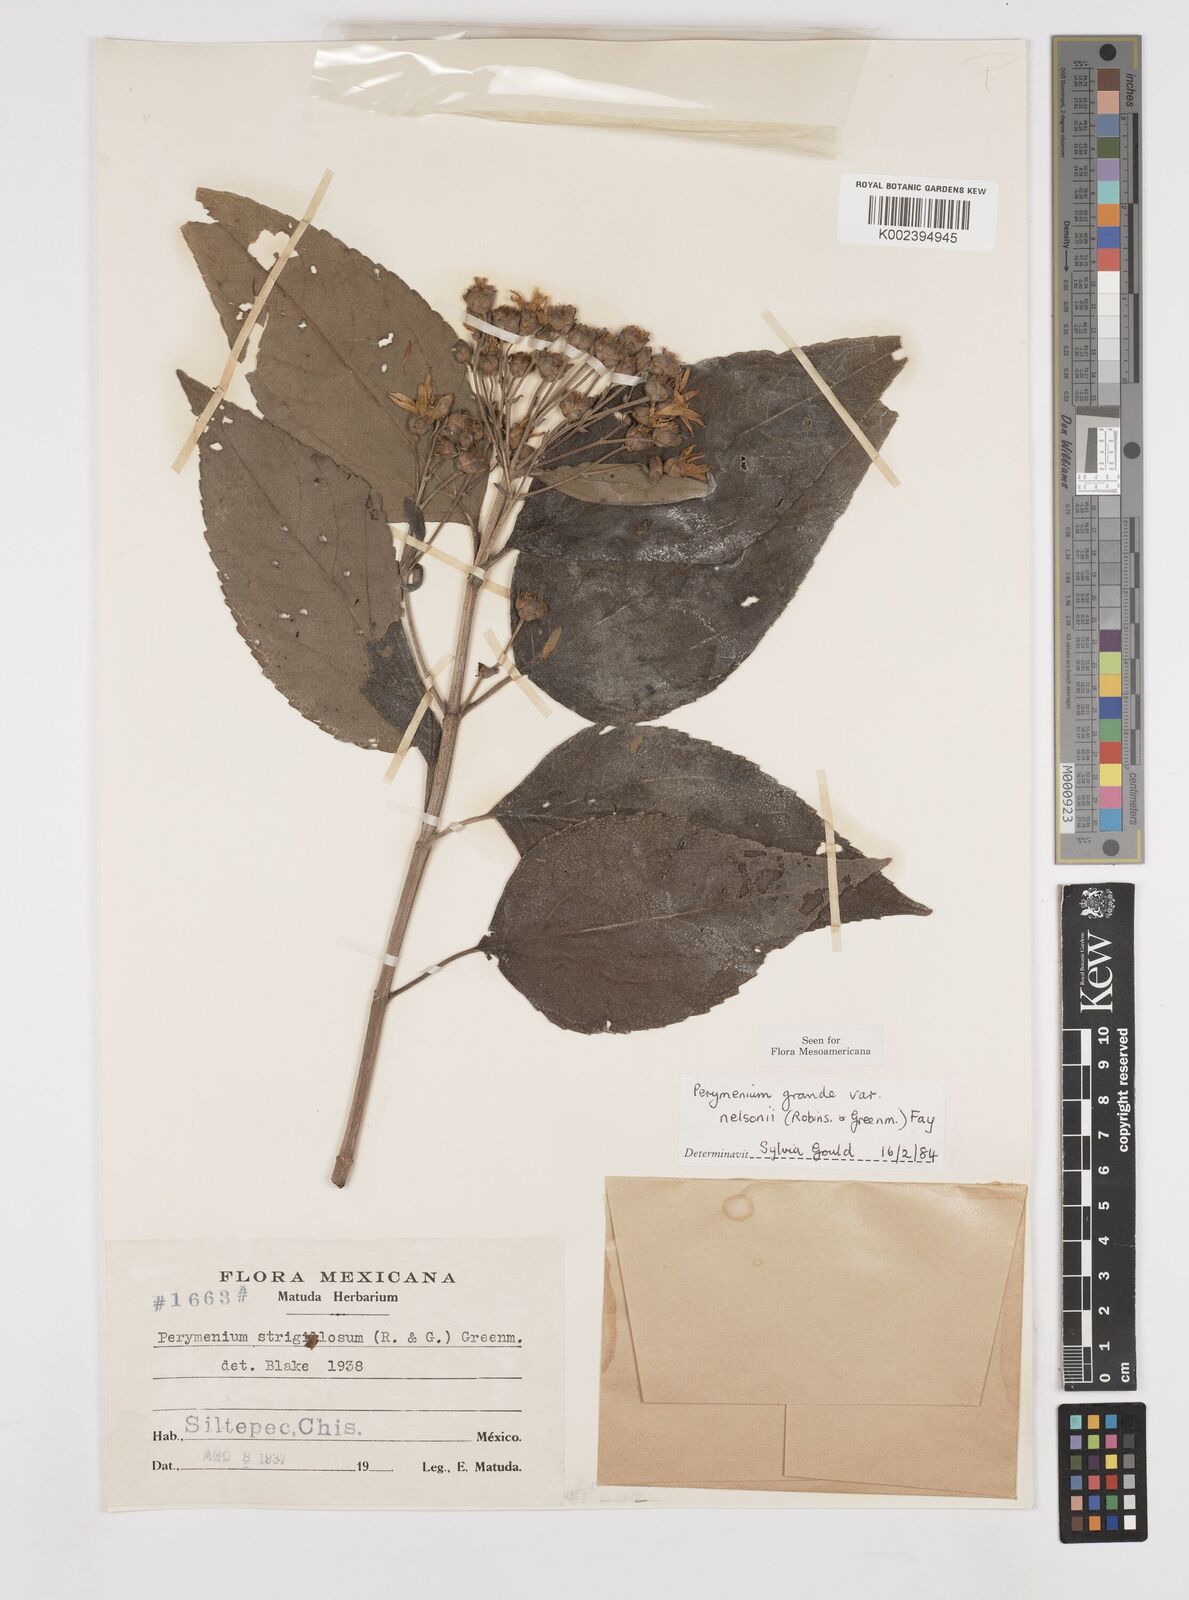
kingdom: Plantae
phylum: Tracheophyta
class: Magnoliopsida
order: Asterales
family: Asteraceae
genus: Perymenium
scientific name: Perymenium grande
